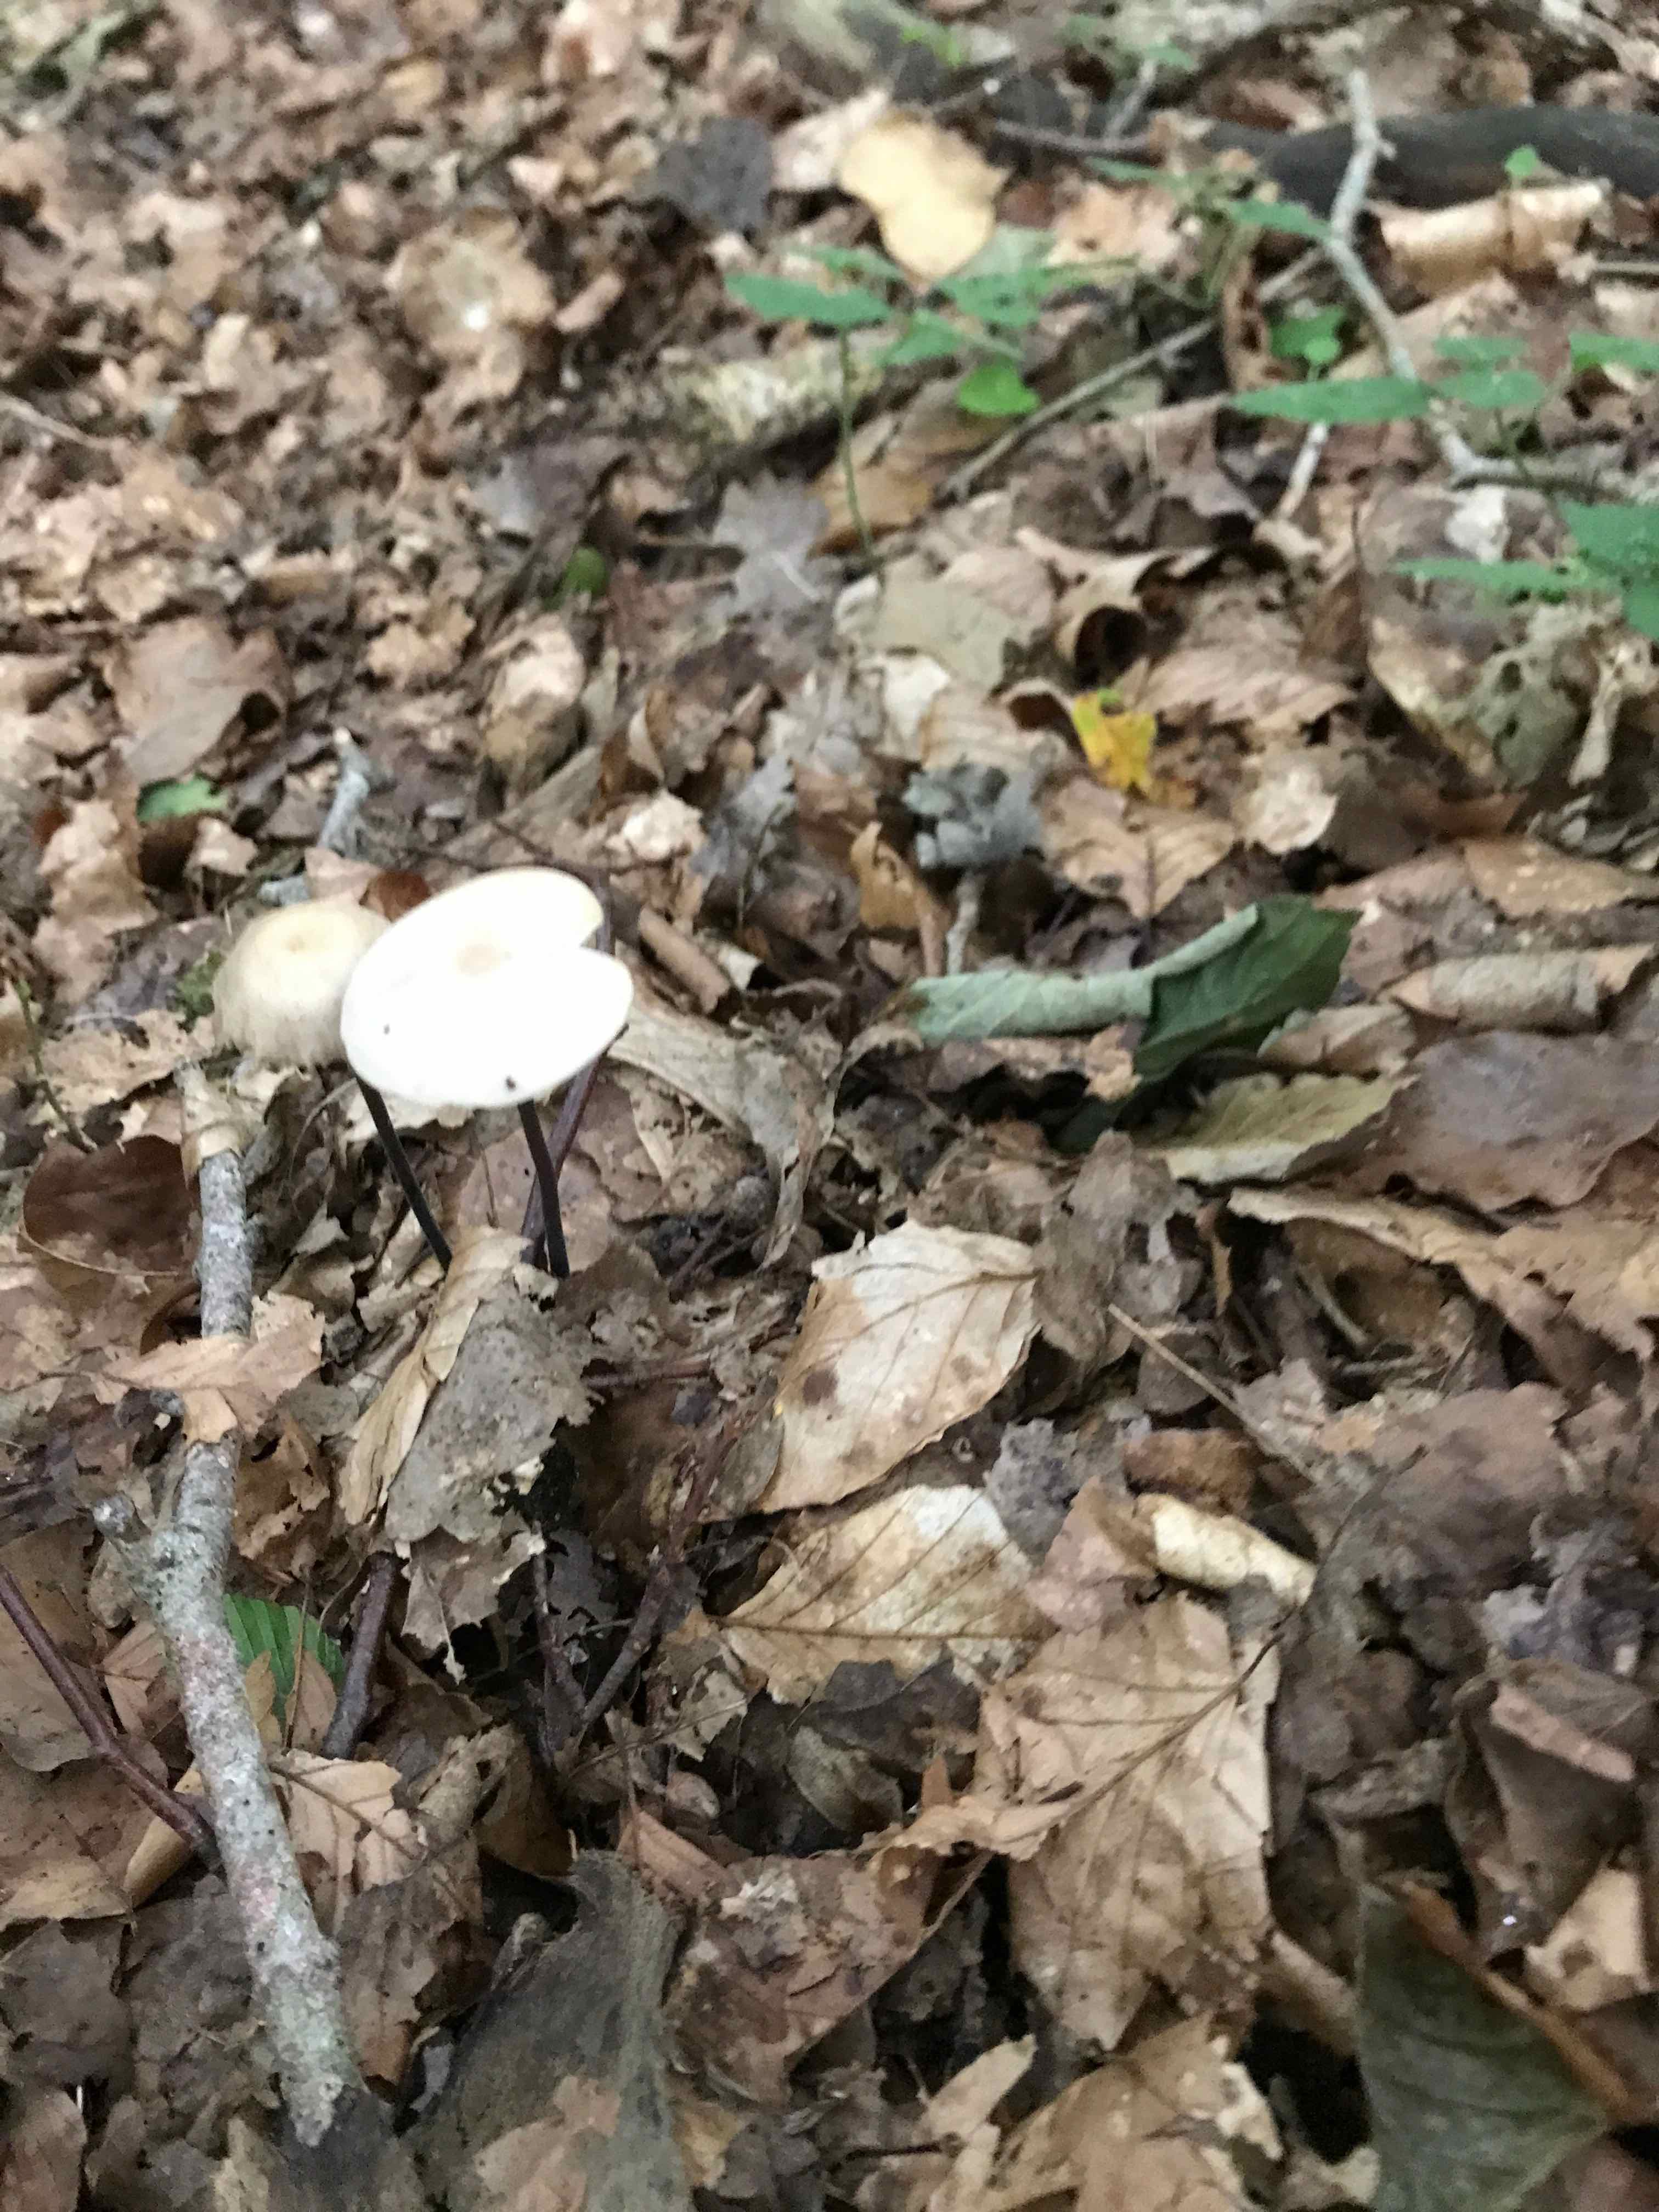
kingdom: Fungi
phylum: Basidiomycota
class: Agaricomycetes
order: Agaricales
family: Omphalotaceae
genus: Mycetinis
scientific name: Mycetinis alliaceus
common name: stor løghat
